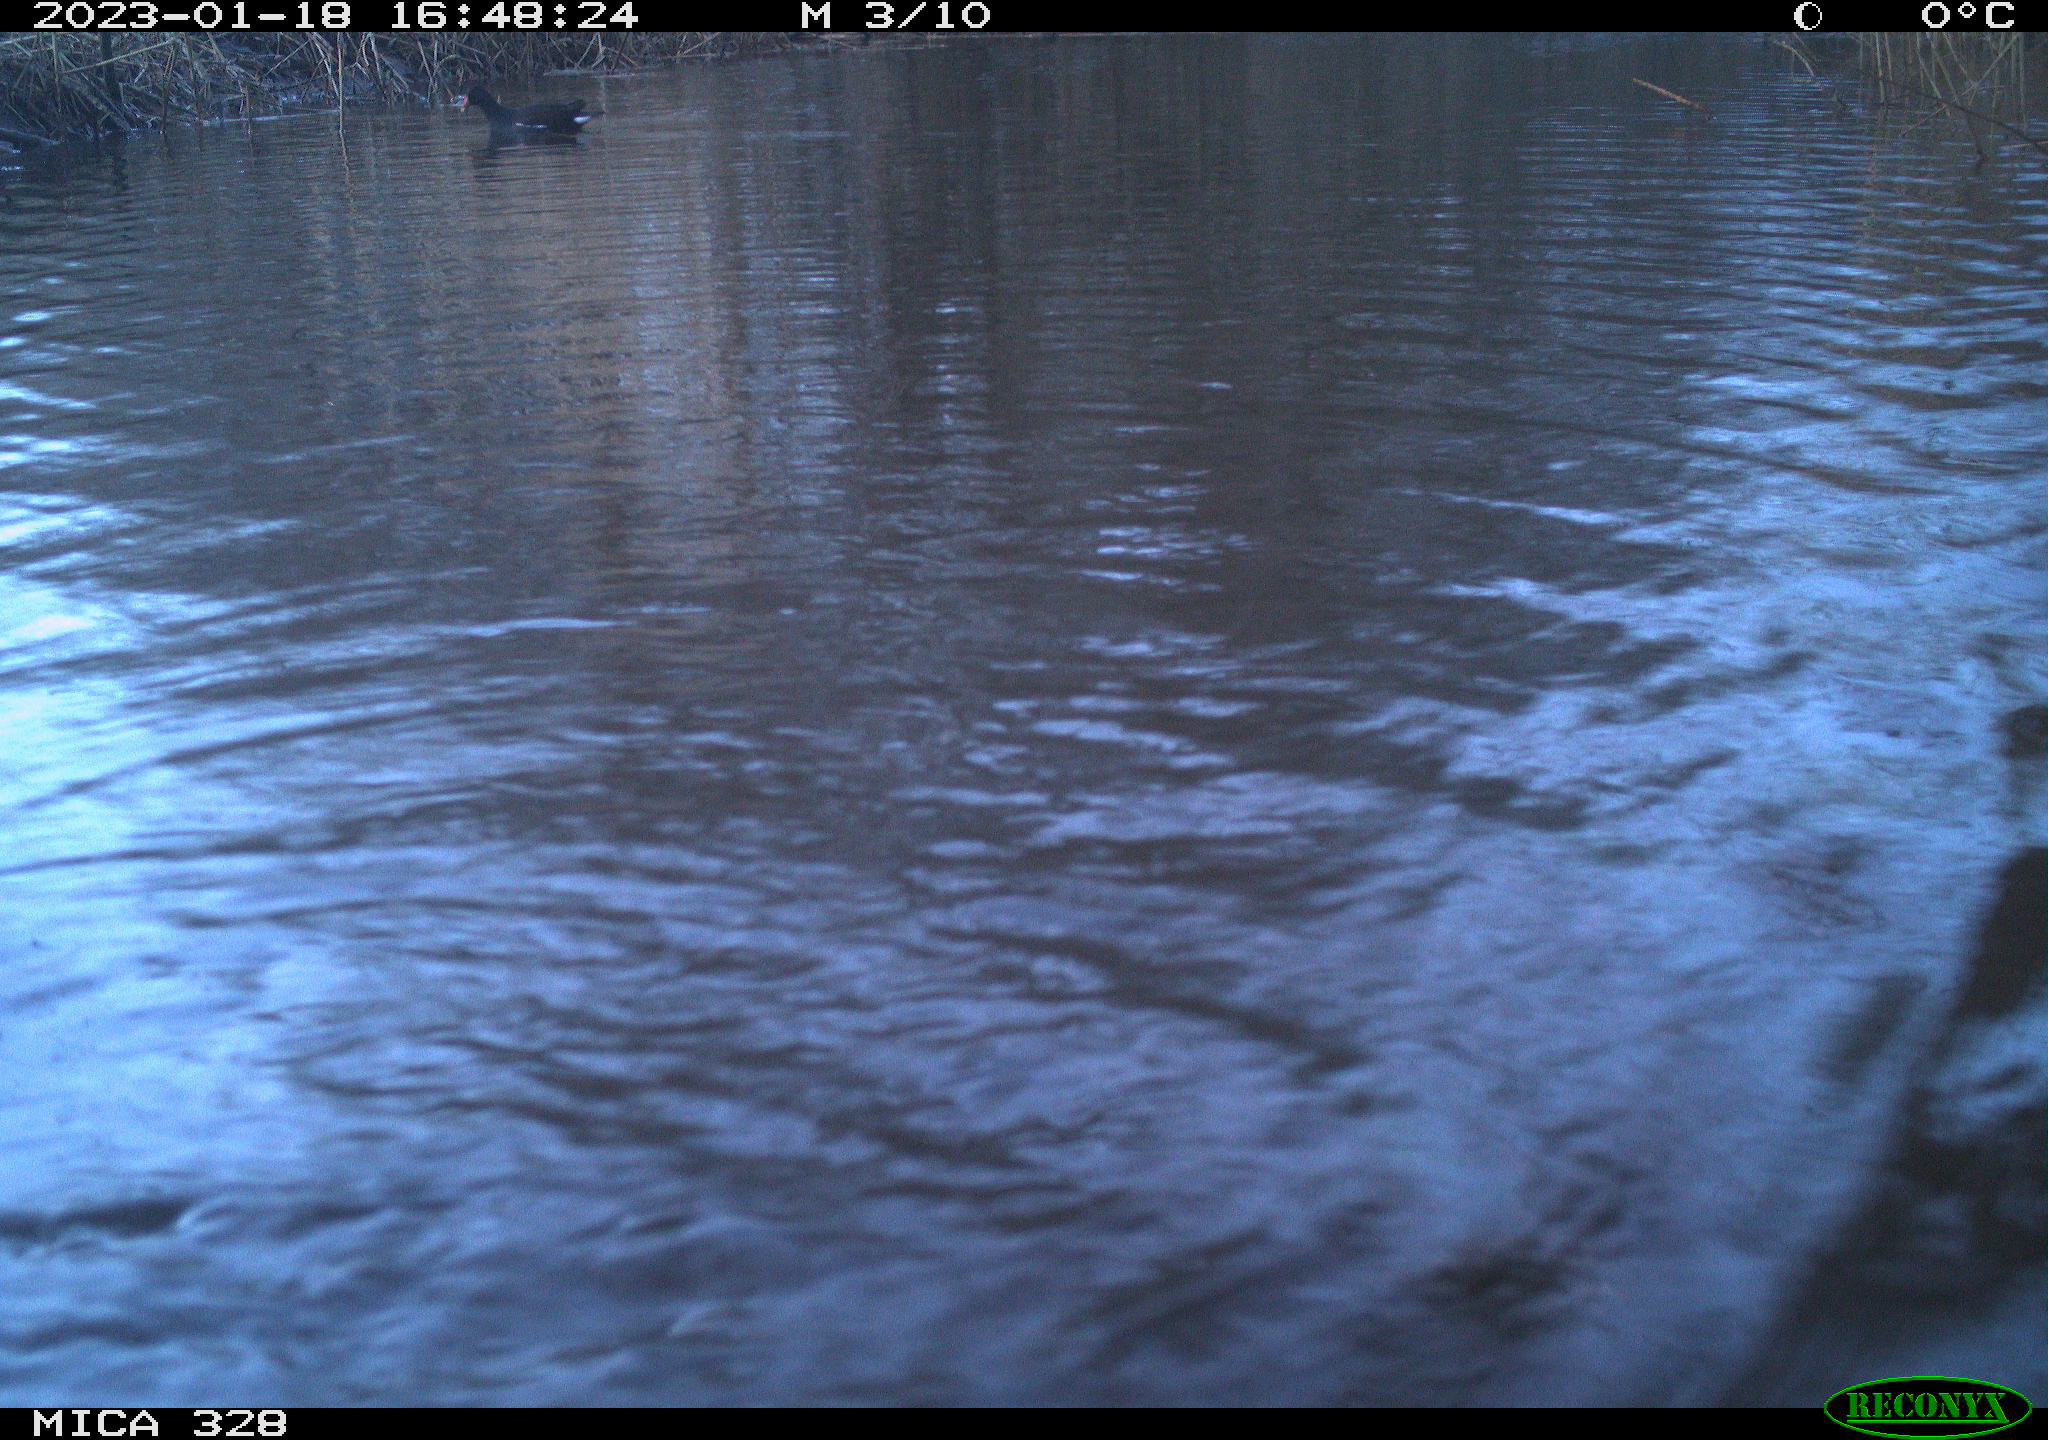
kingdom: Animalia
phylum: Chordata
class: Mammalia
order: Rodentia
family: Cricetidae
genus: Ondatra
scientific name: Ondatra zibethicus
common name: Muskrat
